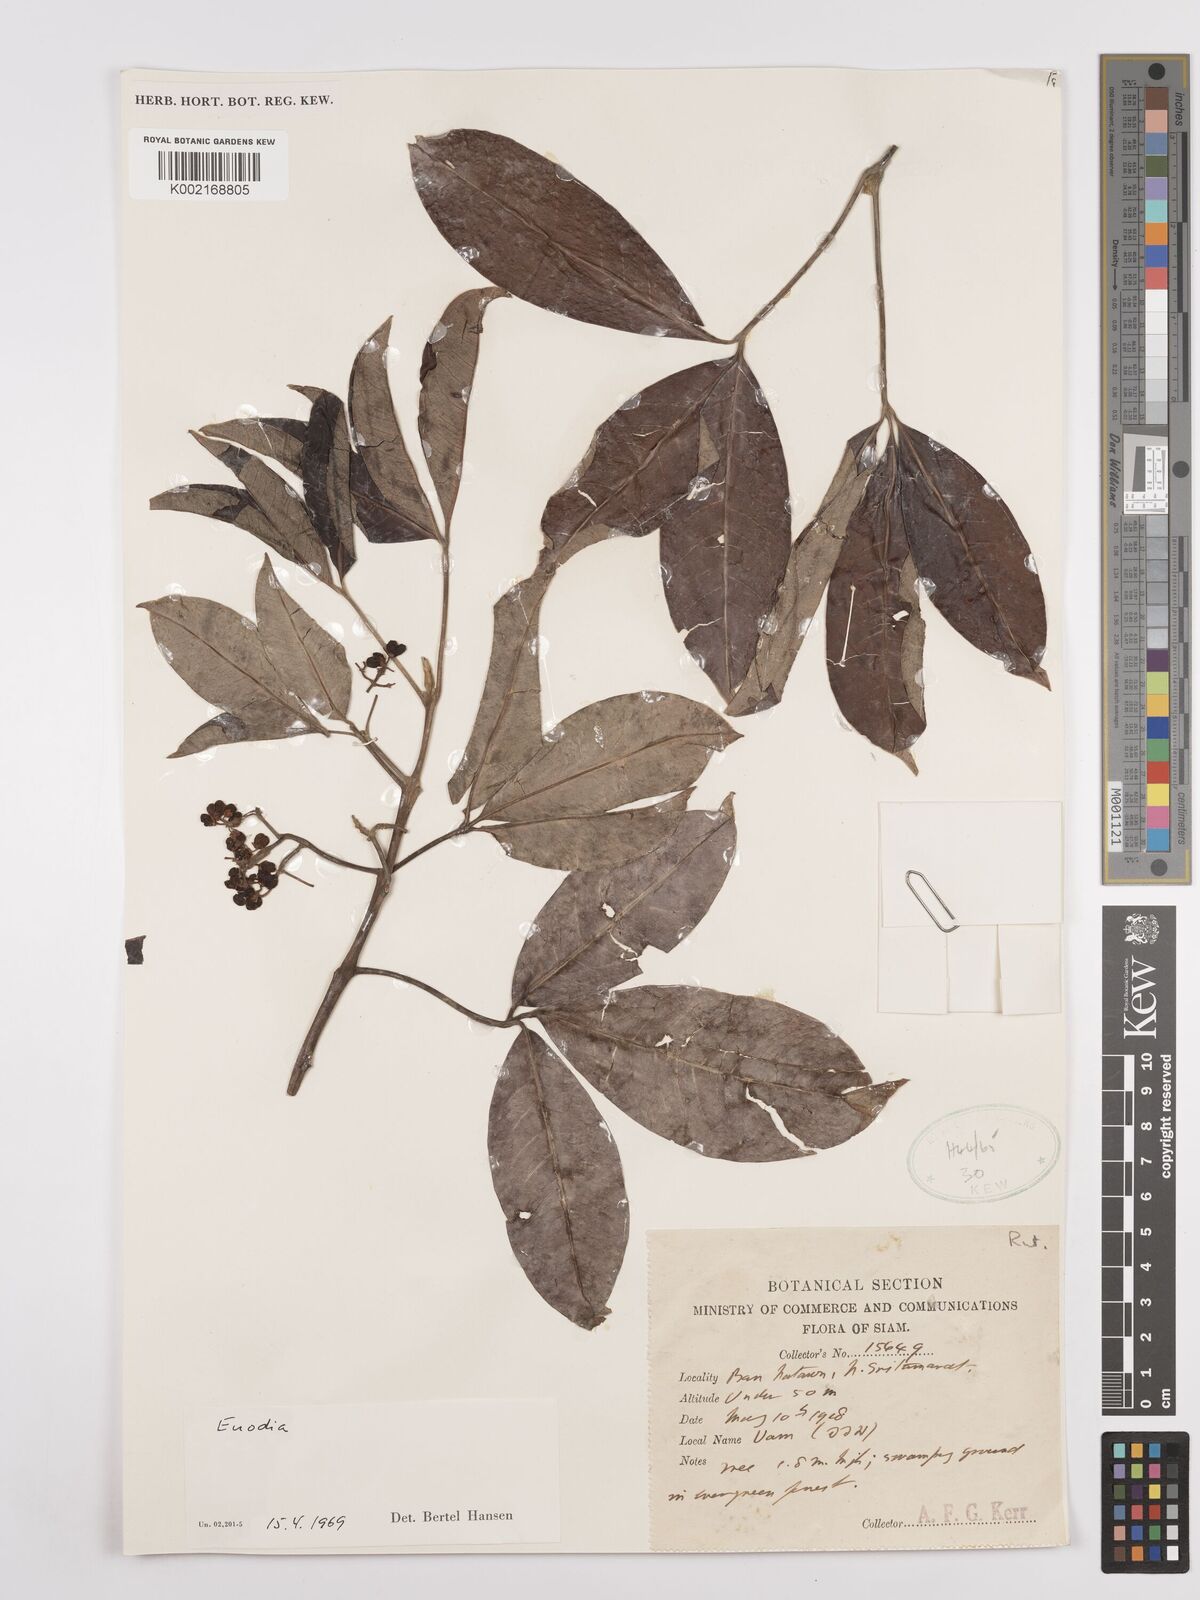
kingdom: Plantae
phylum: Tracheophyta
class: Magnoliopsida
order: Sapindales
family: Rutaceae
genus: Euodia
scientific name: Euodia
